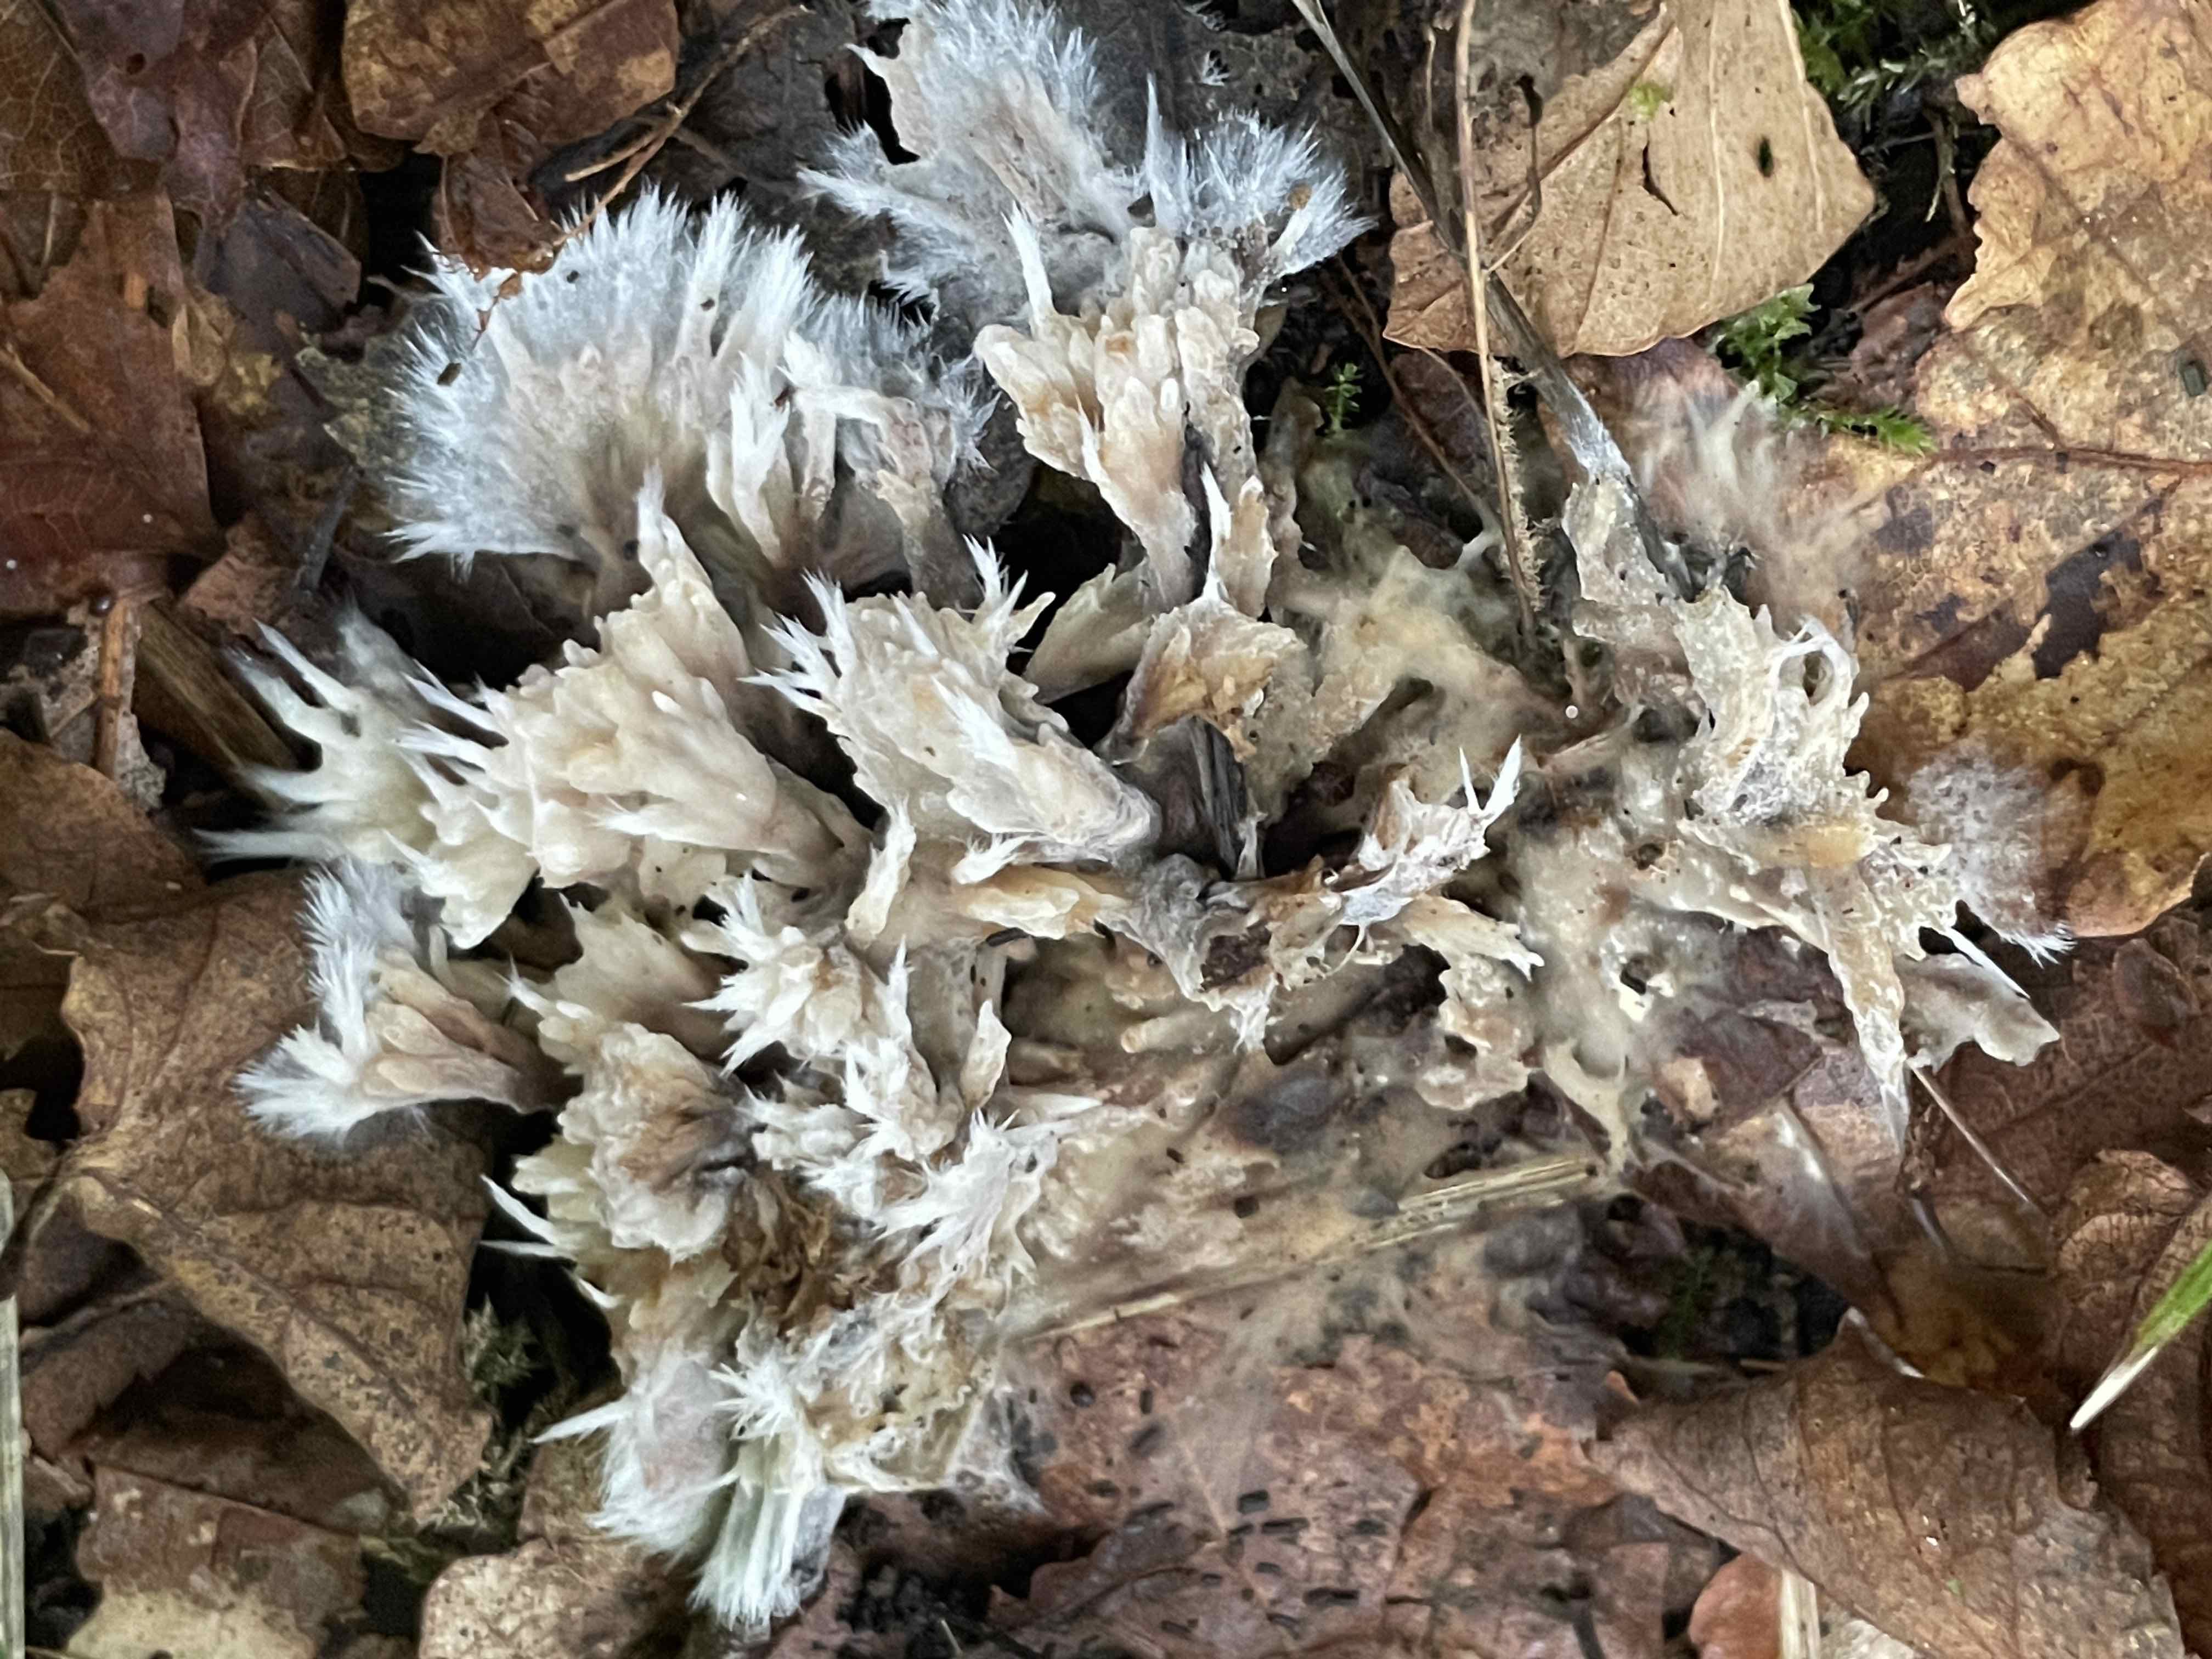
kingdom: Fungi
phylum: Basidiomycota
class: Agaricomycetes
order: Thelephorales
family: Thelephoraceae
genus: Thelephora
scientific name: Thelephora penicillata
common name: fladtrådt frynsesvamp
